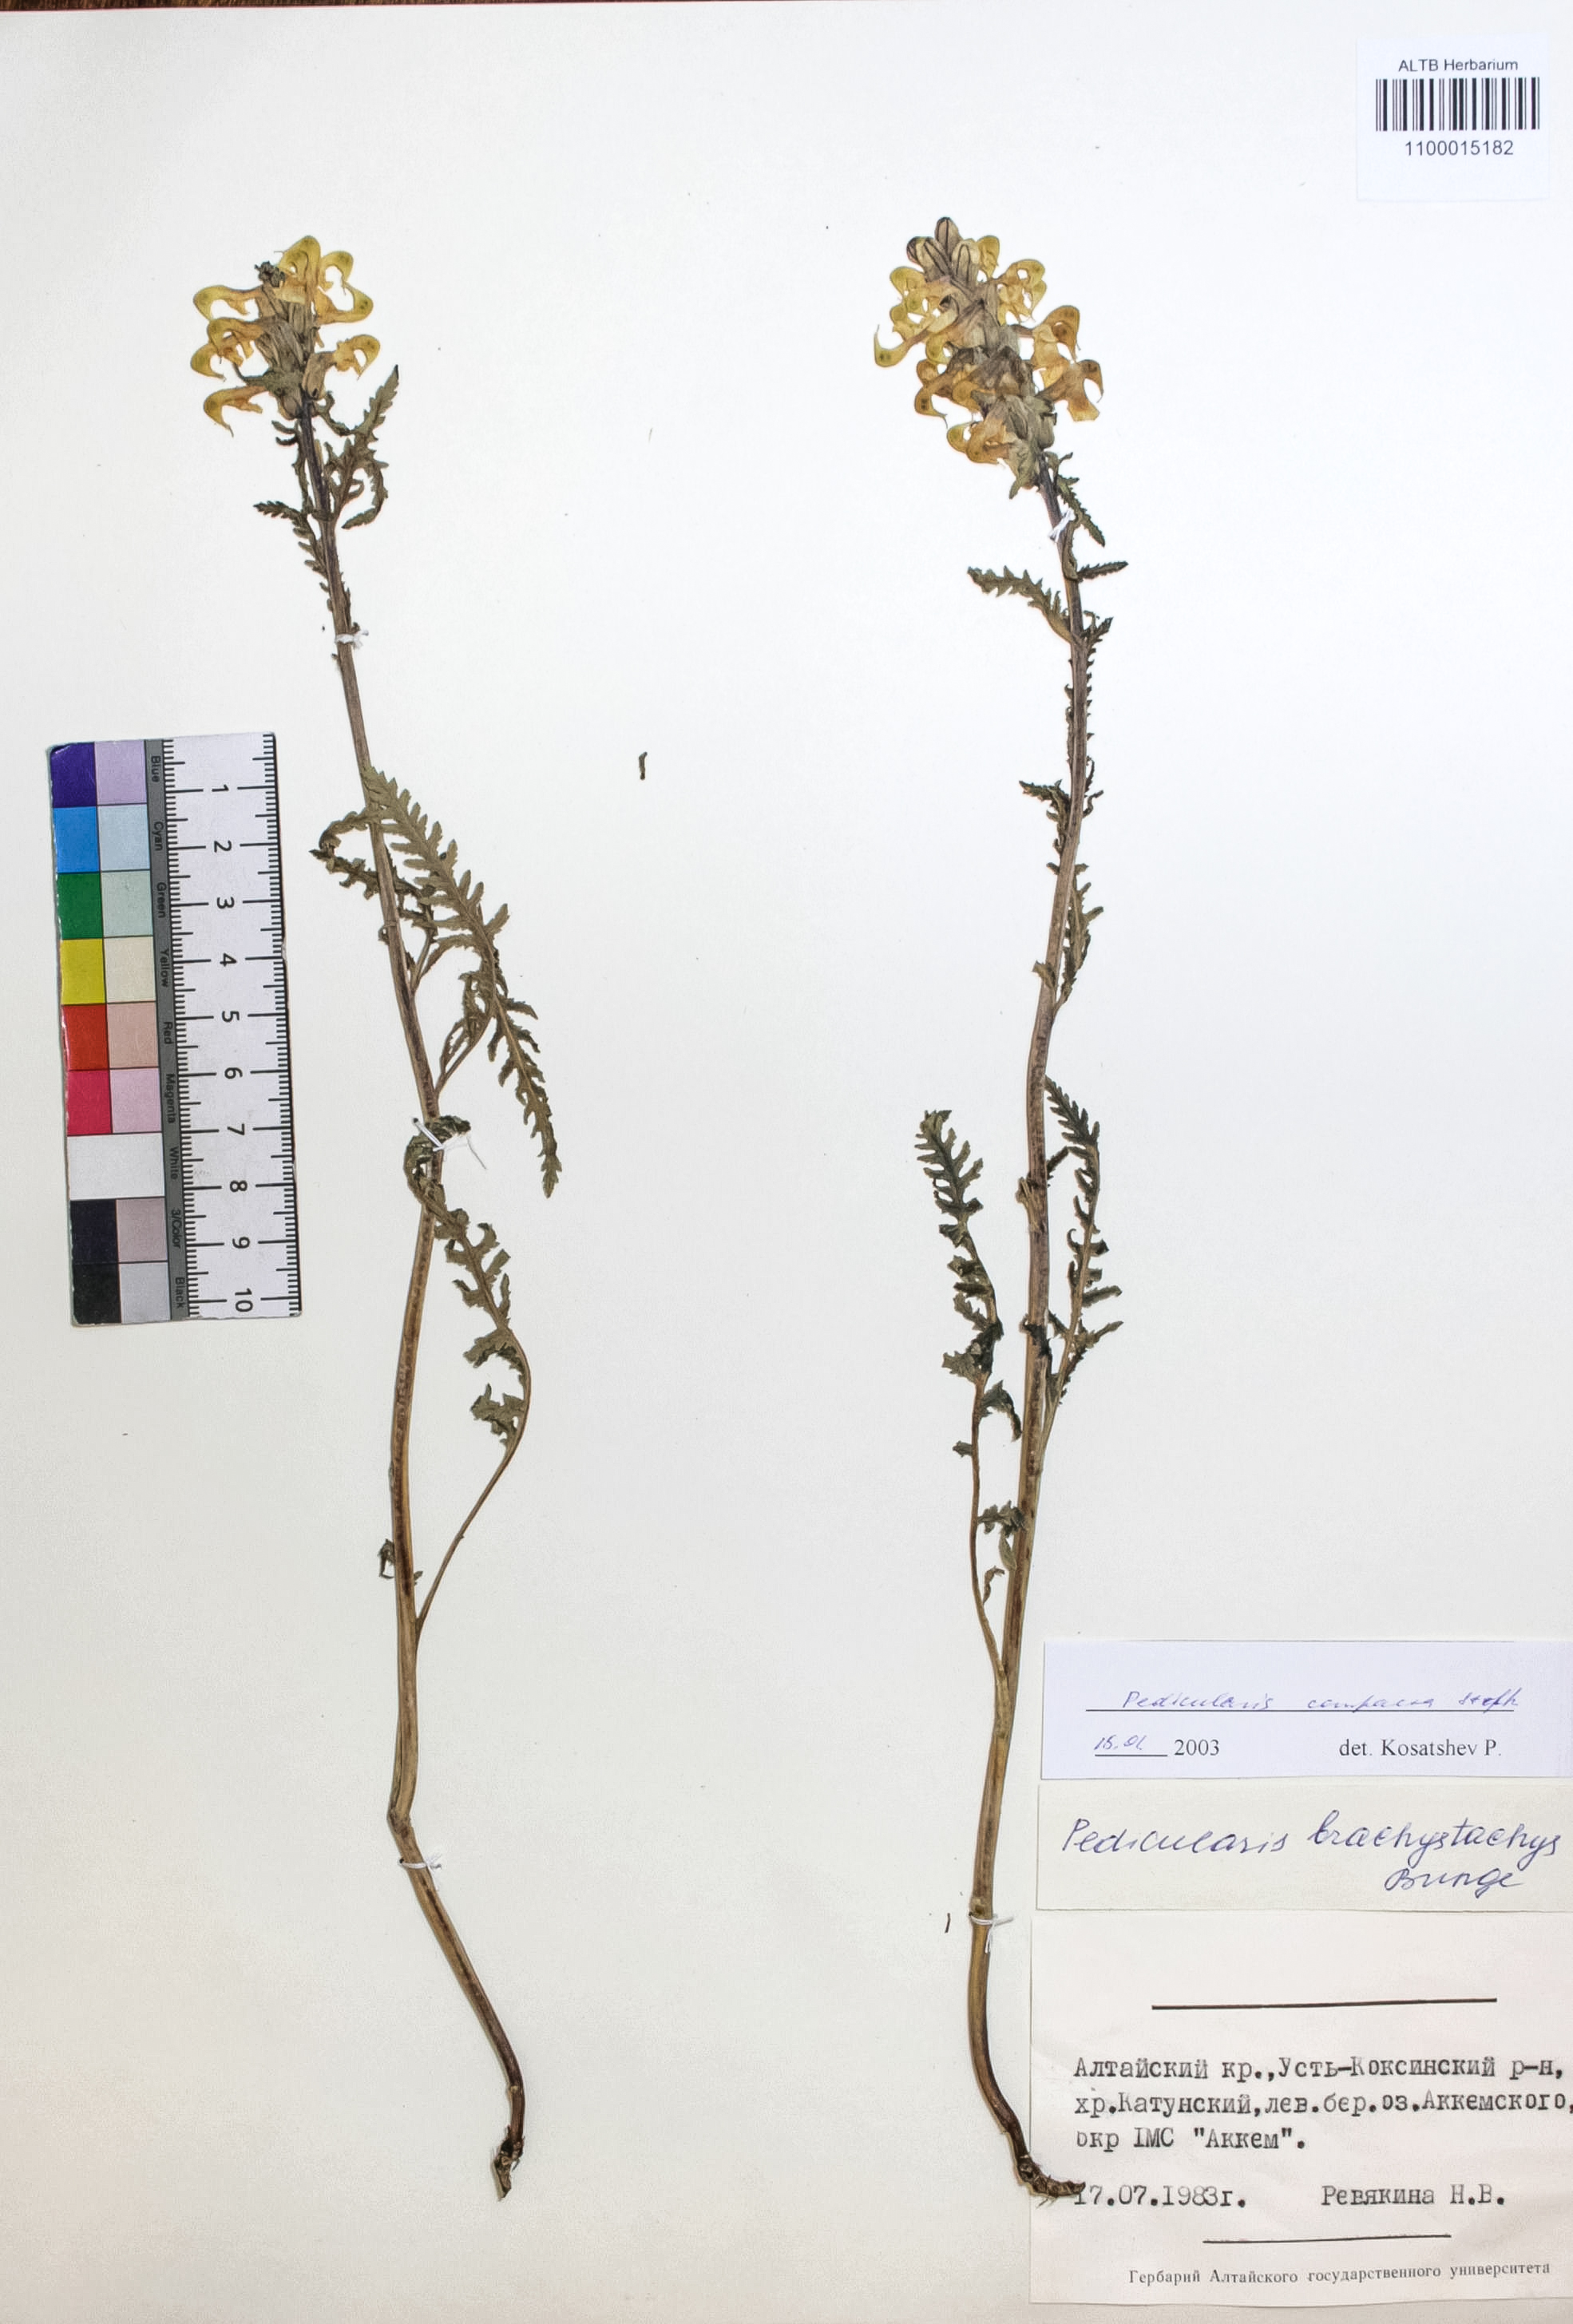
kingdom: Plantae
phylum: Tracheophyta
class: Magnoliopsida
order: Lamiales
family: Orobanchaceae
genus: Pedicularis
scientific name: Pedicularis compacta
